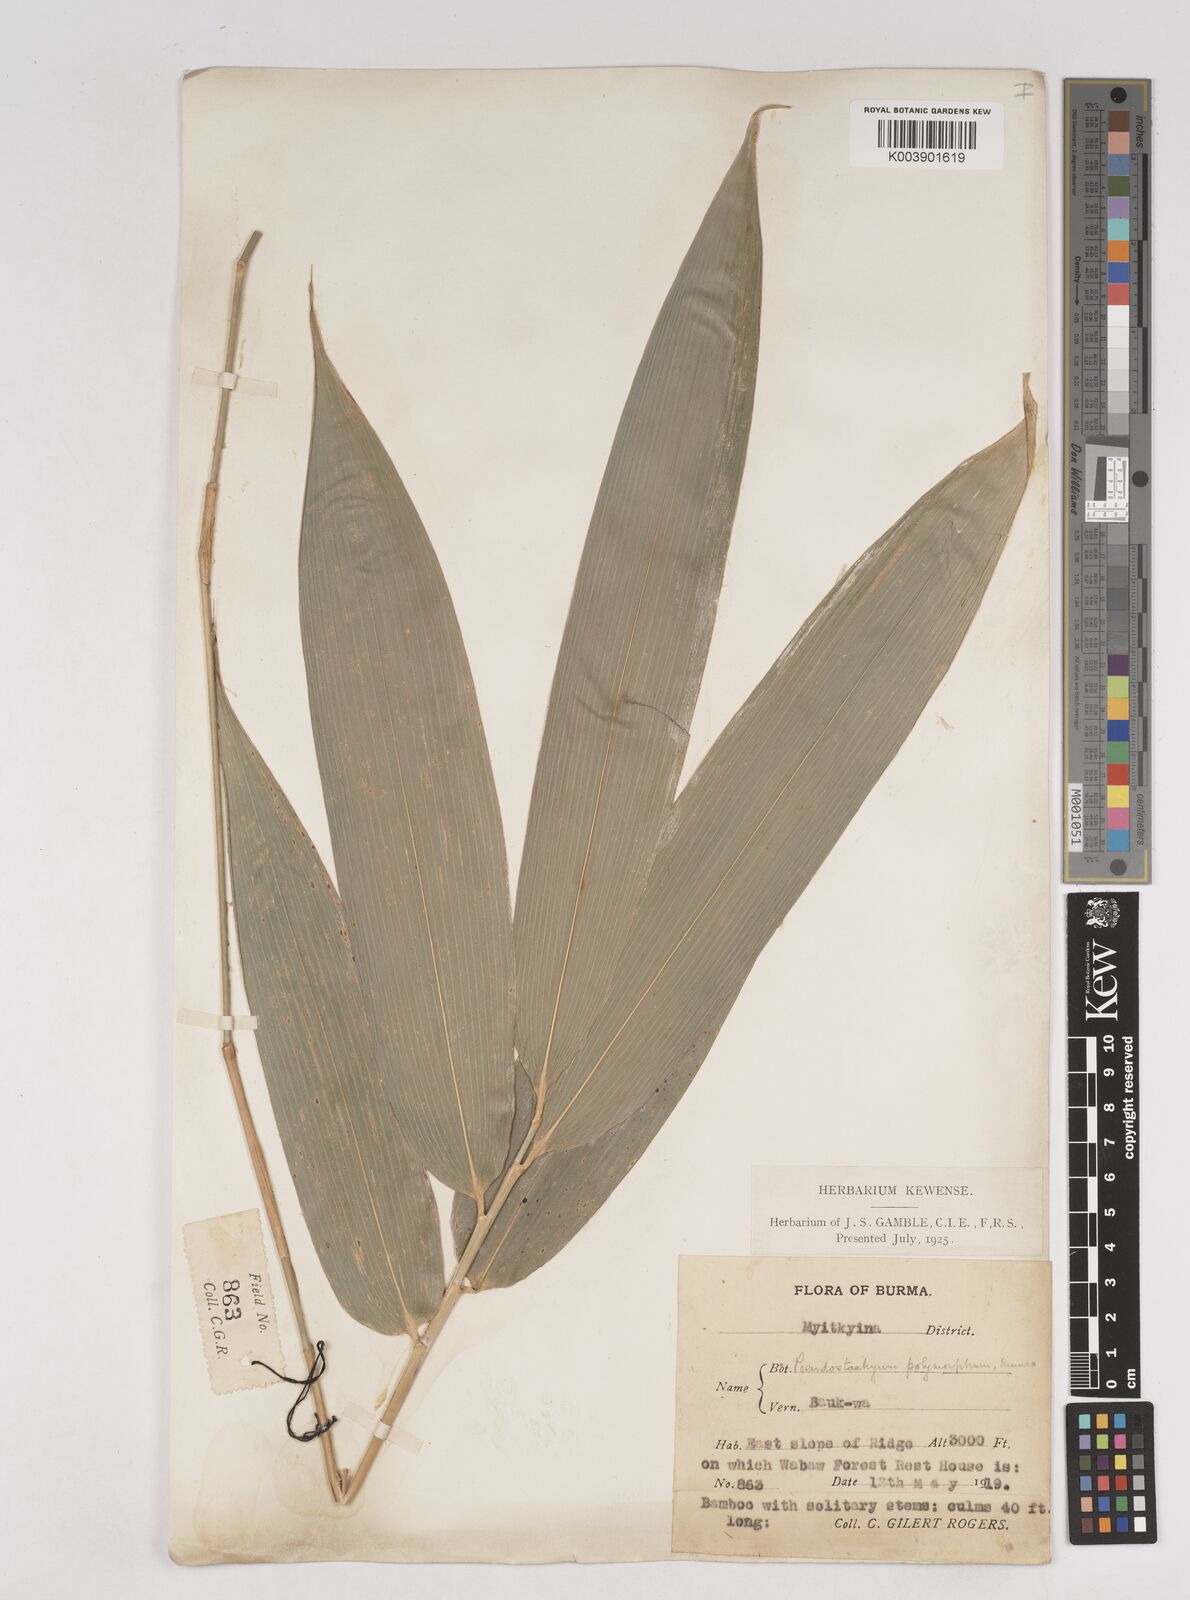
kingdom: Plantae
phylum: Tracheophyta
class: Liliopsida
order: Poales
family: Poaceae
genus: Pseudostachyum
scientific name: Pseudostachyum polymorphum
